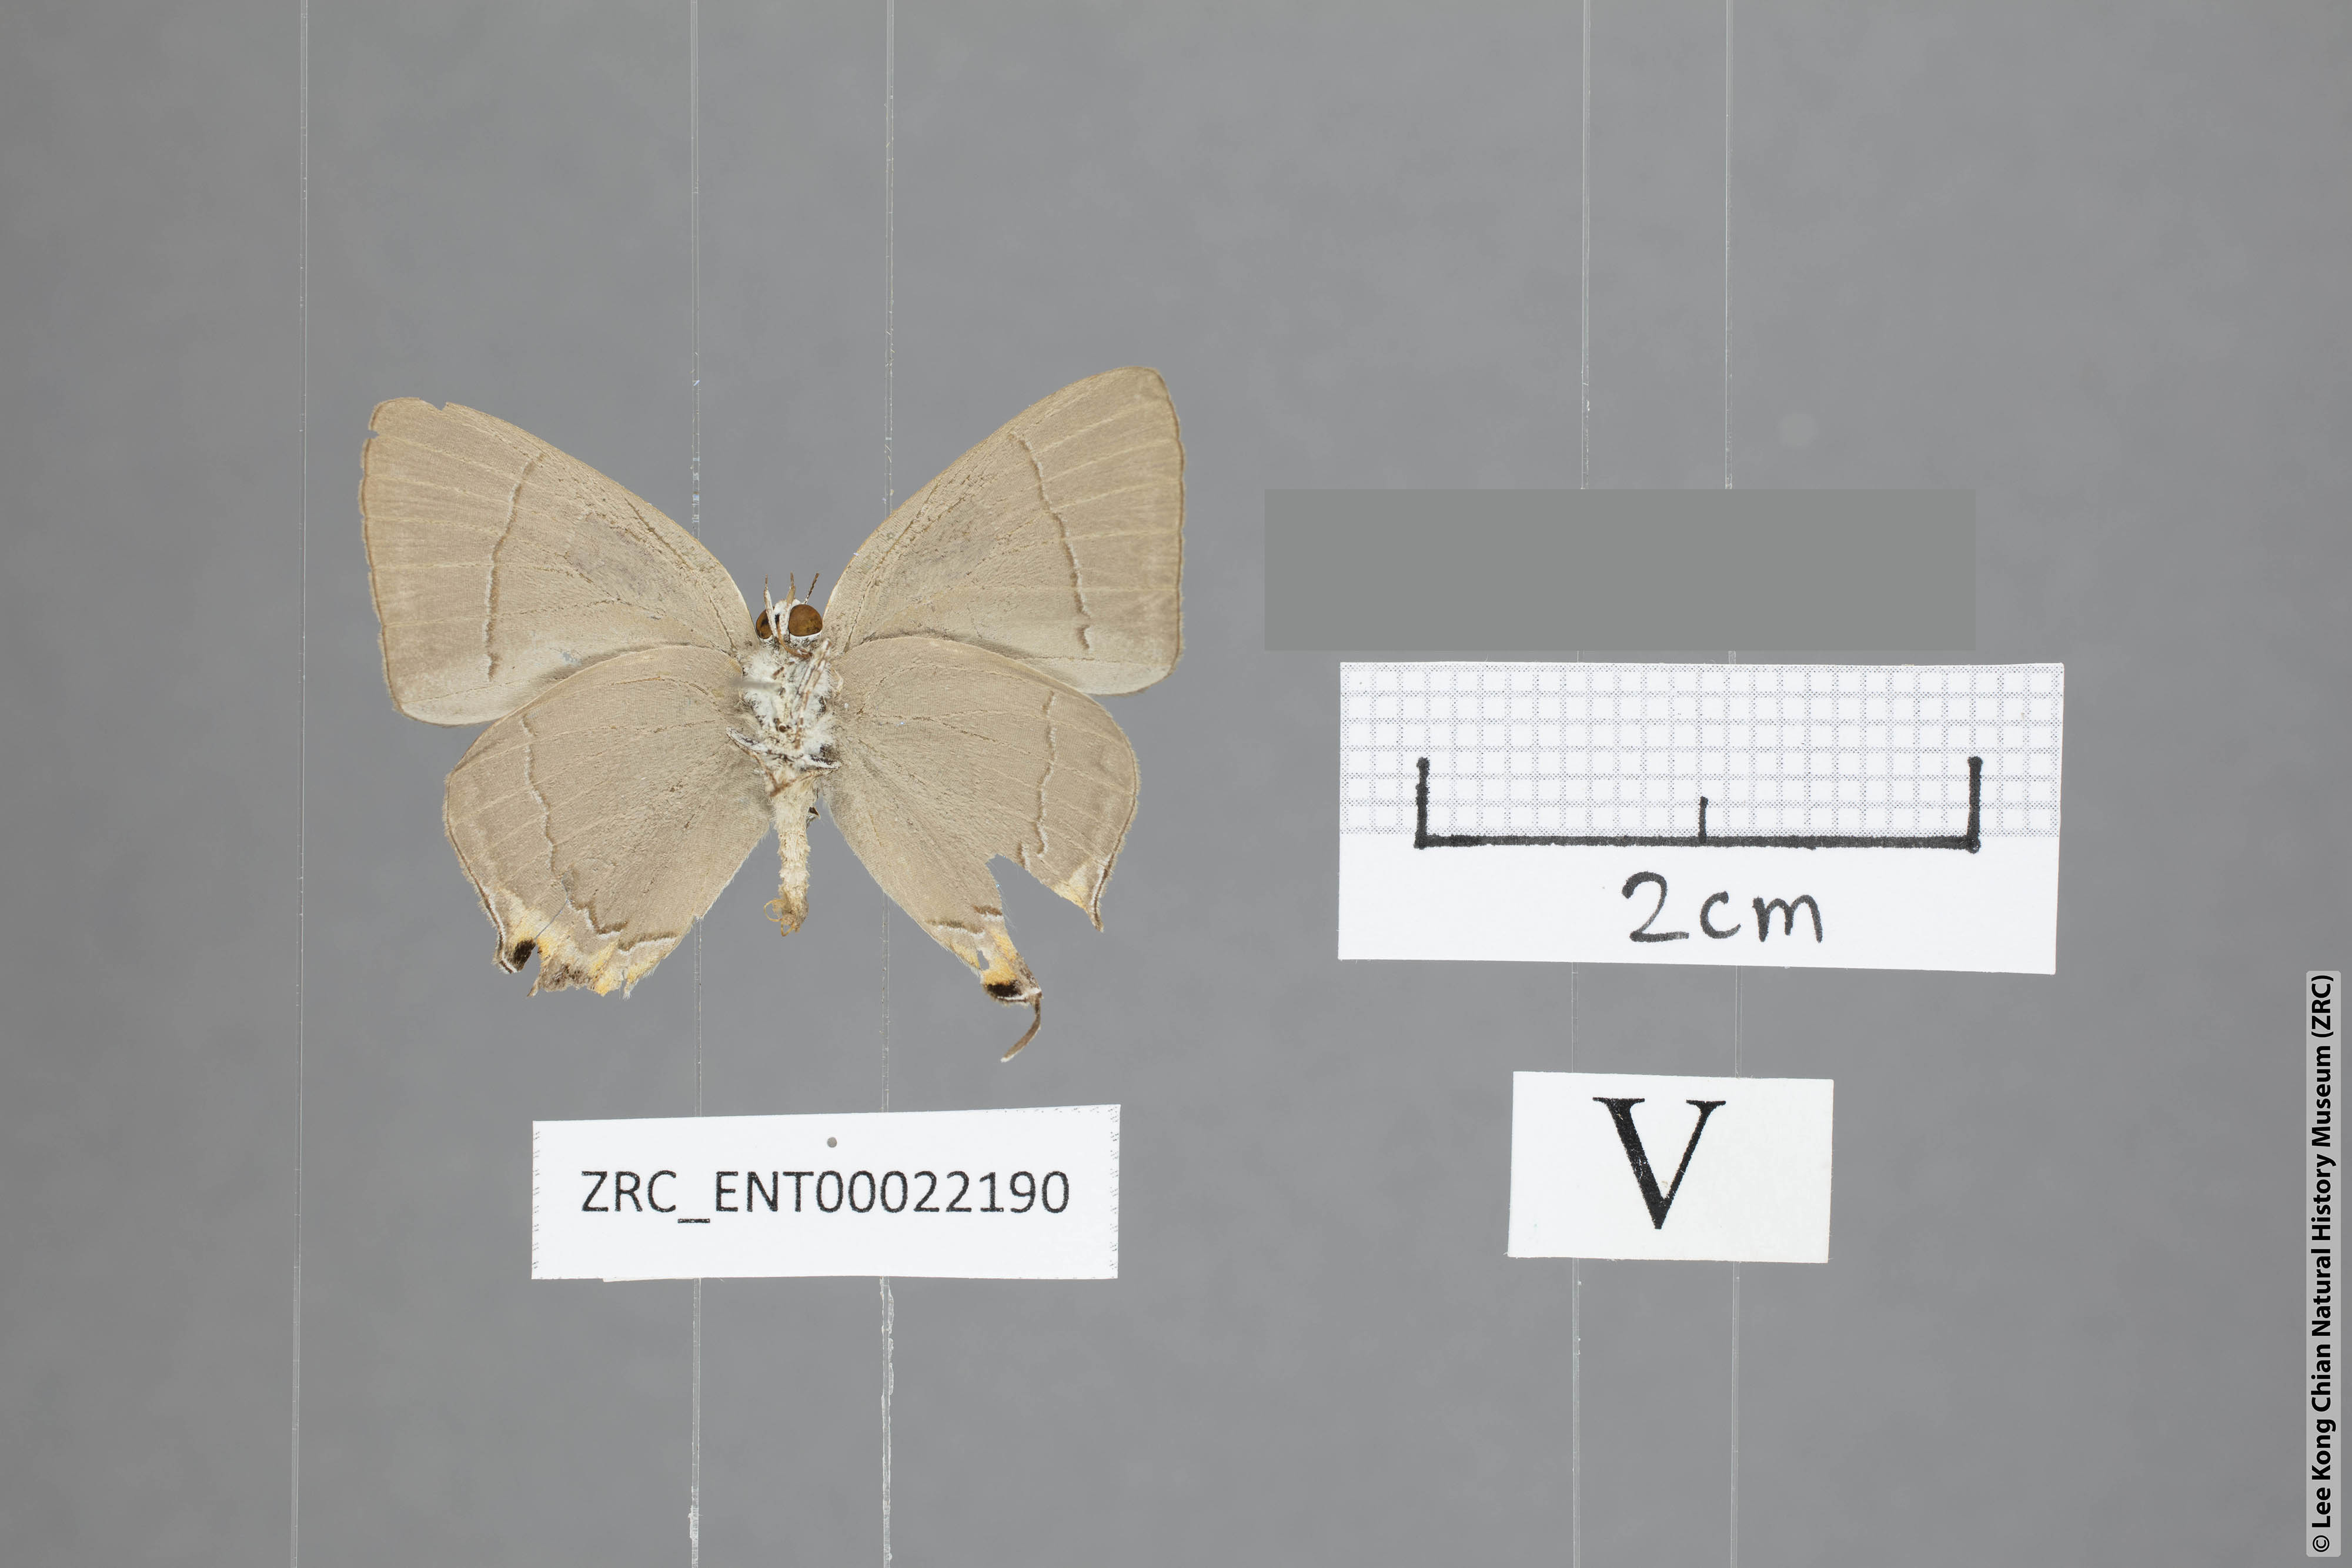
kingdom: Animalia
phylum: Arthropoda
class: Insecta
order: Lepidoptera
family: Lycaenidae
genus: Tajuria
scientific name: Tajuria dominus
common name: Influent royal
